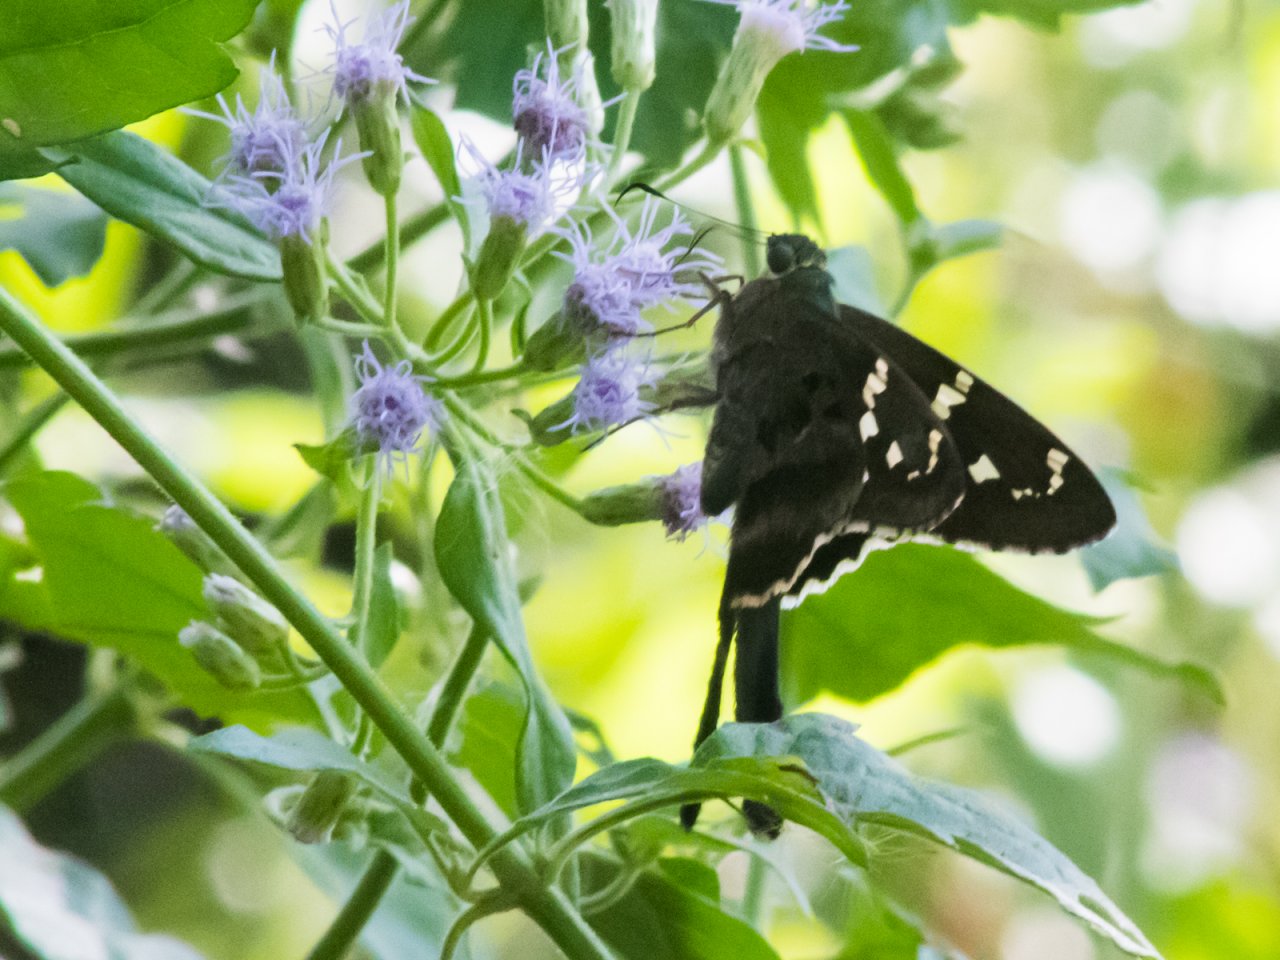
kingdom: Animalia
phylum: Arthropoda
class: Insecta
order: Lepidoptera
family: Hesperiidae
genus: Urbanus
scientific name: Urbanus proteus
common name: Long-tailed Skipper
